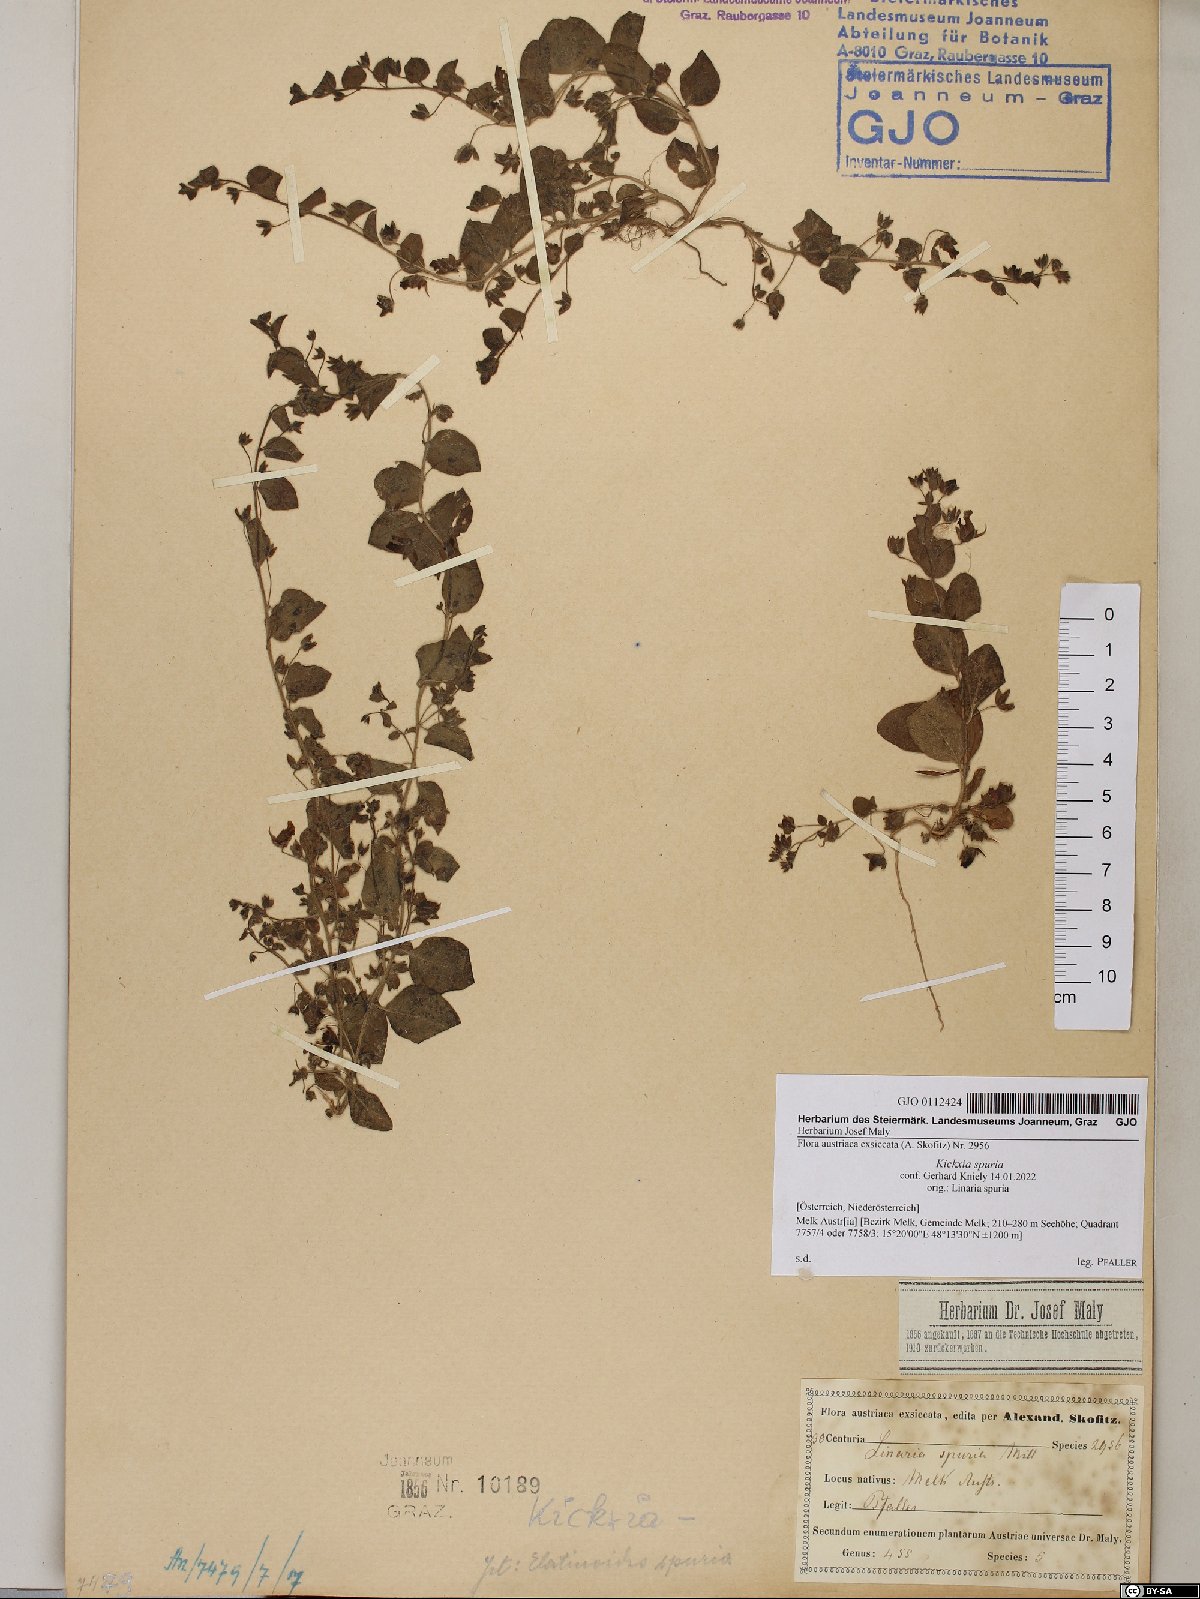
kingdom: Plantae
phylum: Tracheophyta
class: Magnoliopsida
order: Lamiales
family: Plantaginaceae
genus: Kickxia
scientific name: Kickxia spuria
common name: Round-leaved fluellen
